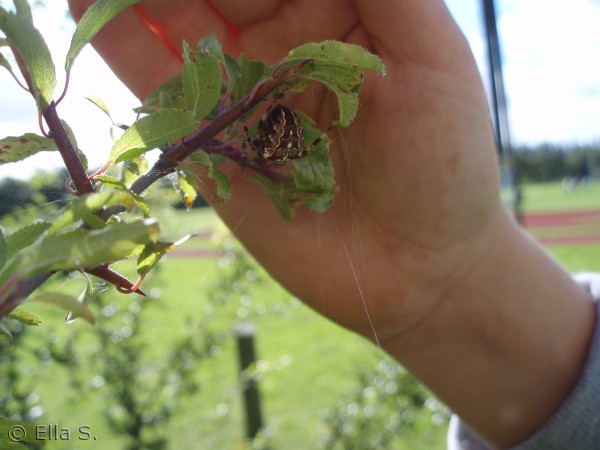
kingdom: Animalia
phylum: Arthropoda
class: Arachnida
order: Araneae
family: Araneidae
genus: Araneus
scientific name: Araneus diadematus
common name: Korsedderkop
